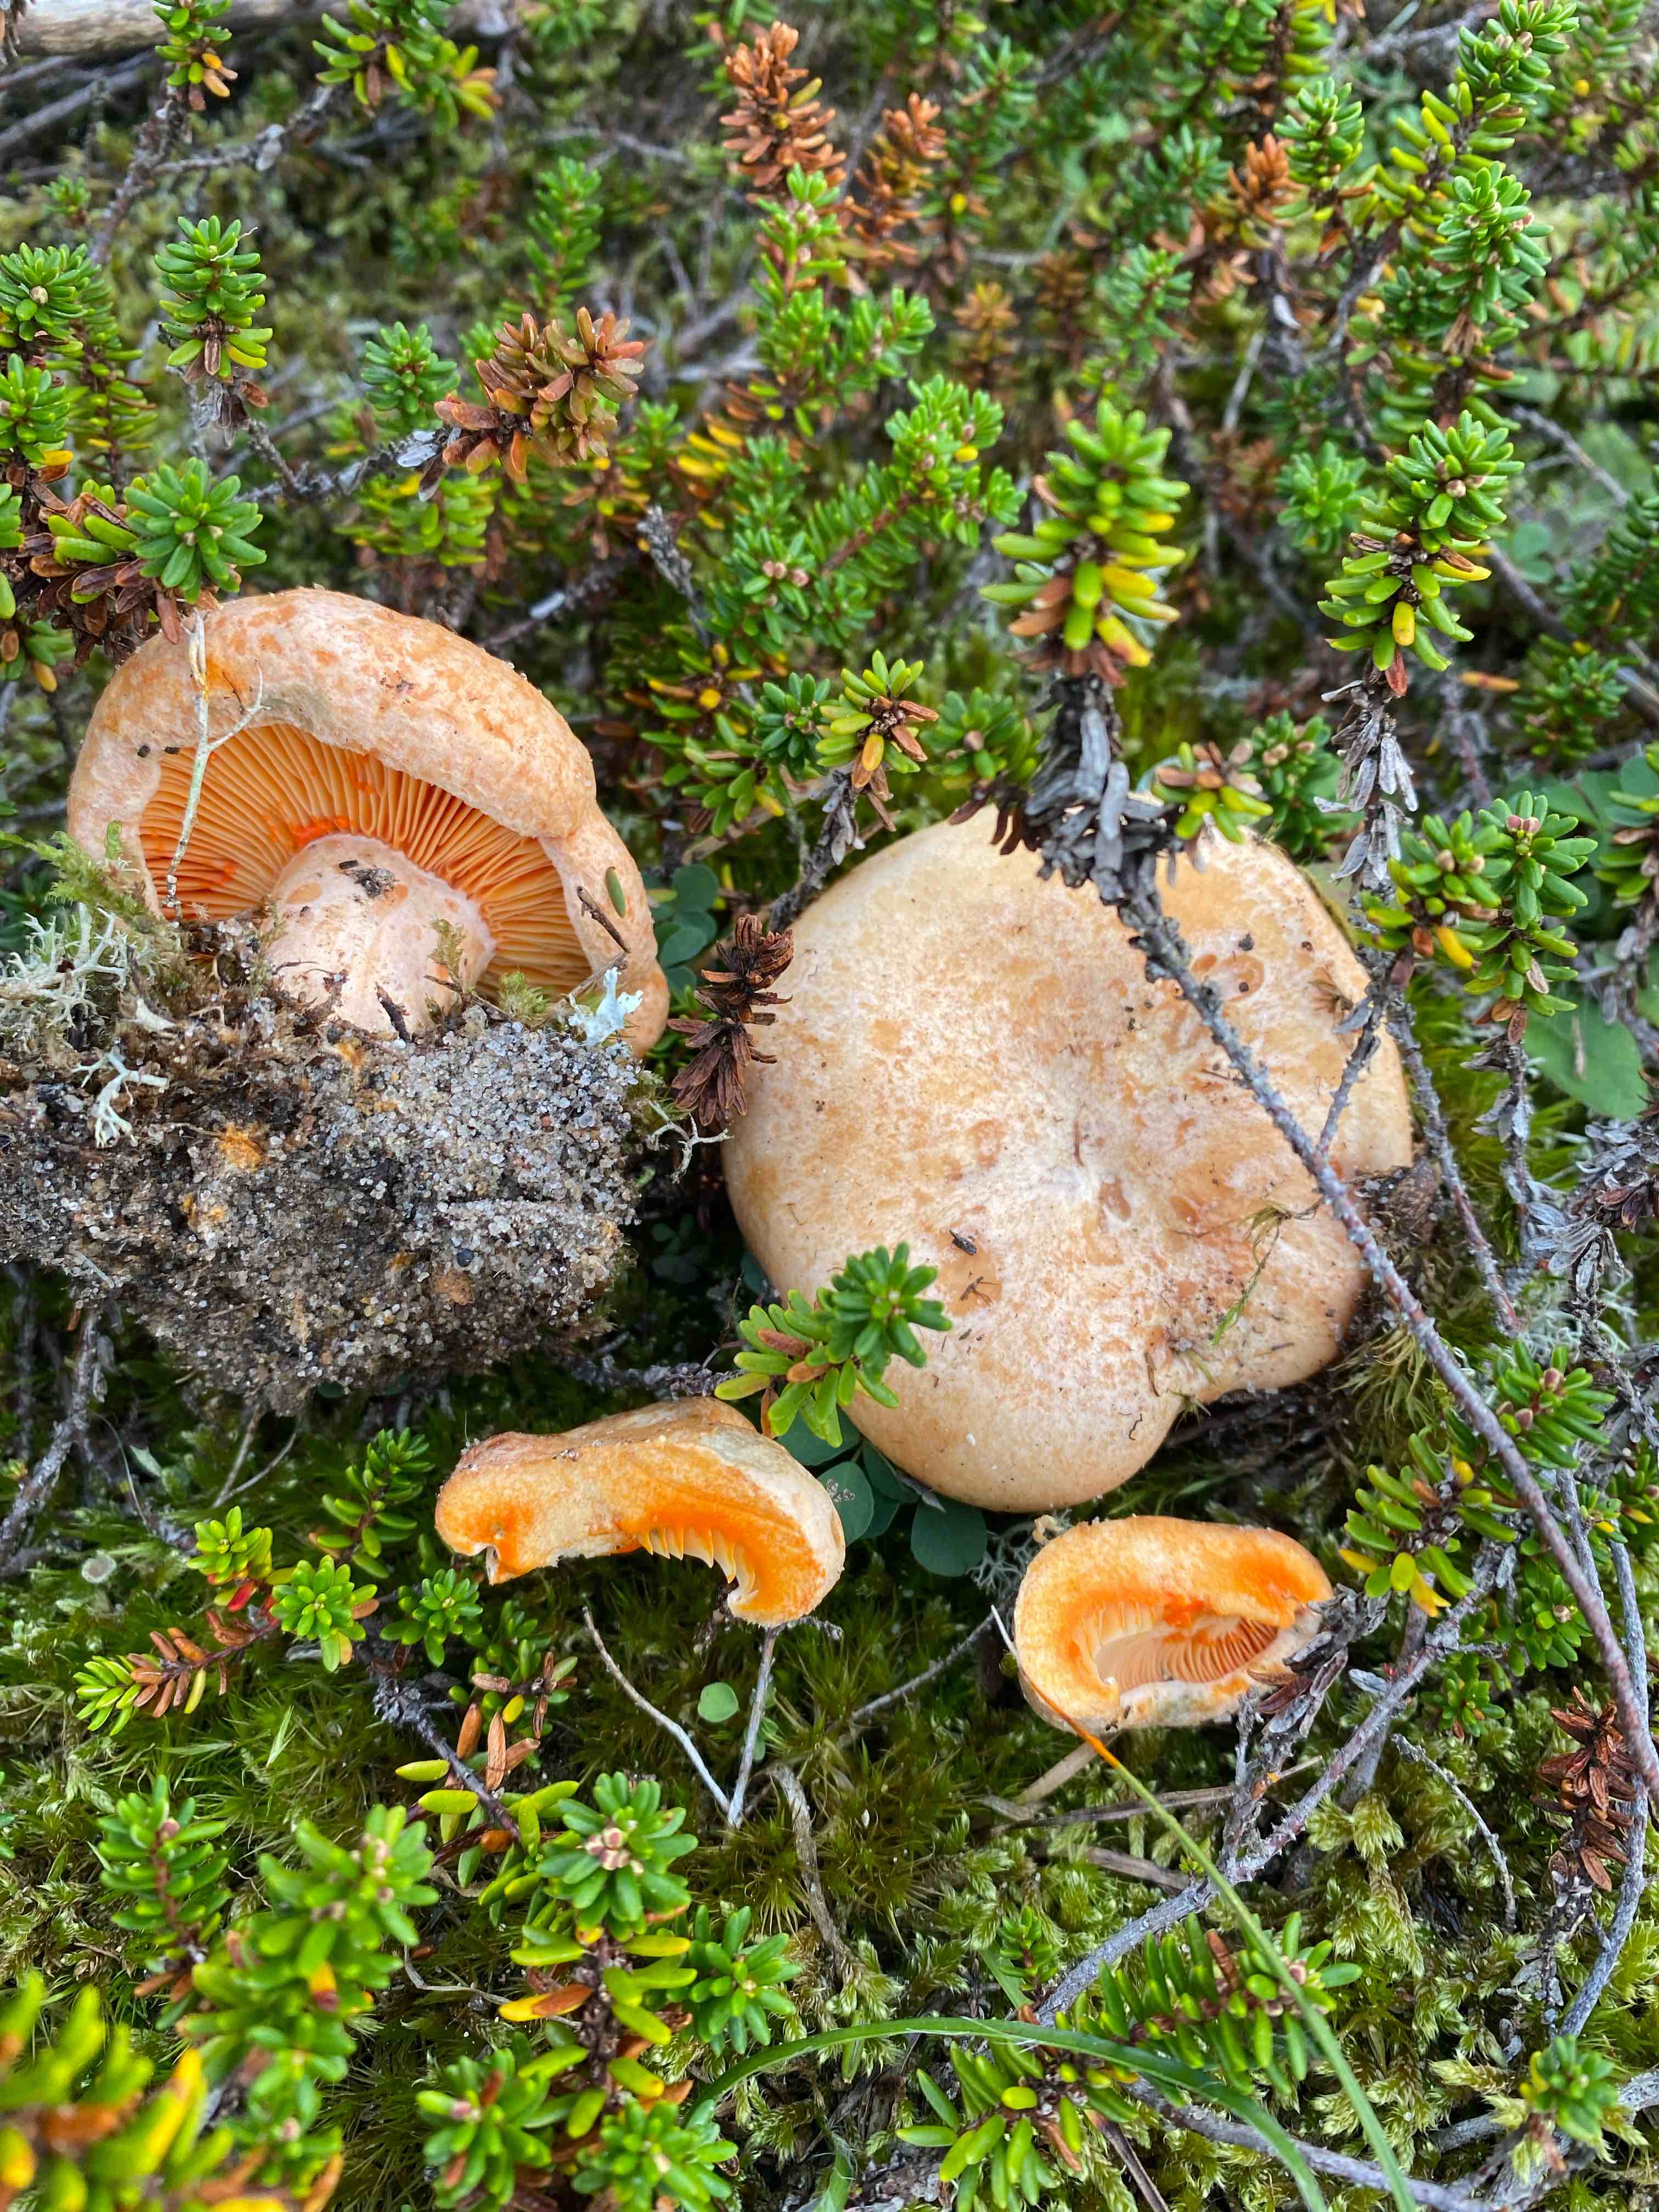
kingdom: Fungi
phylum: Basidiomycota
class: Agaricomycetes
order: Russulales
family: Russulaceae
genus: Lactarius
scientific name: Lactarius deliciosus
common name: velsmagende mælkehat
